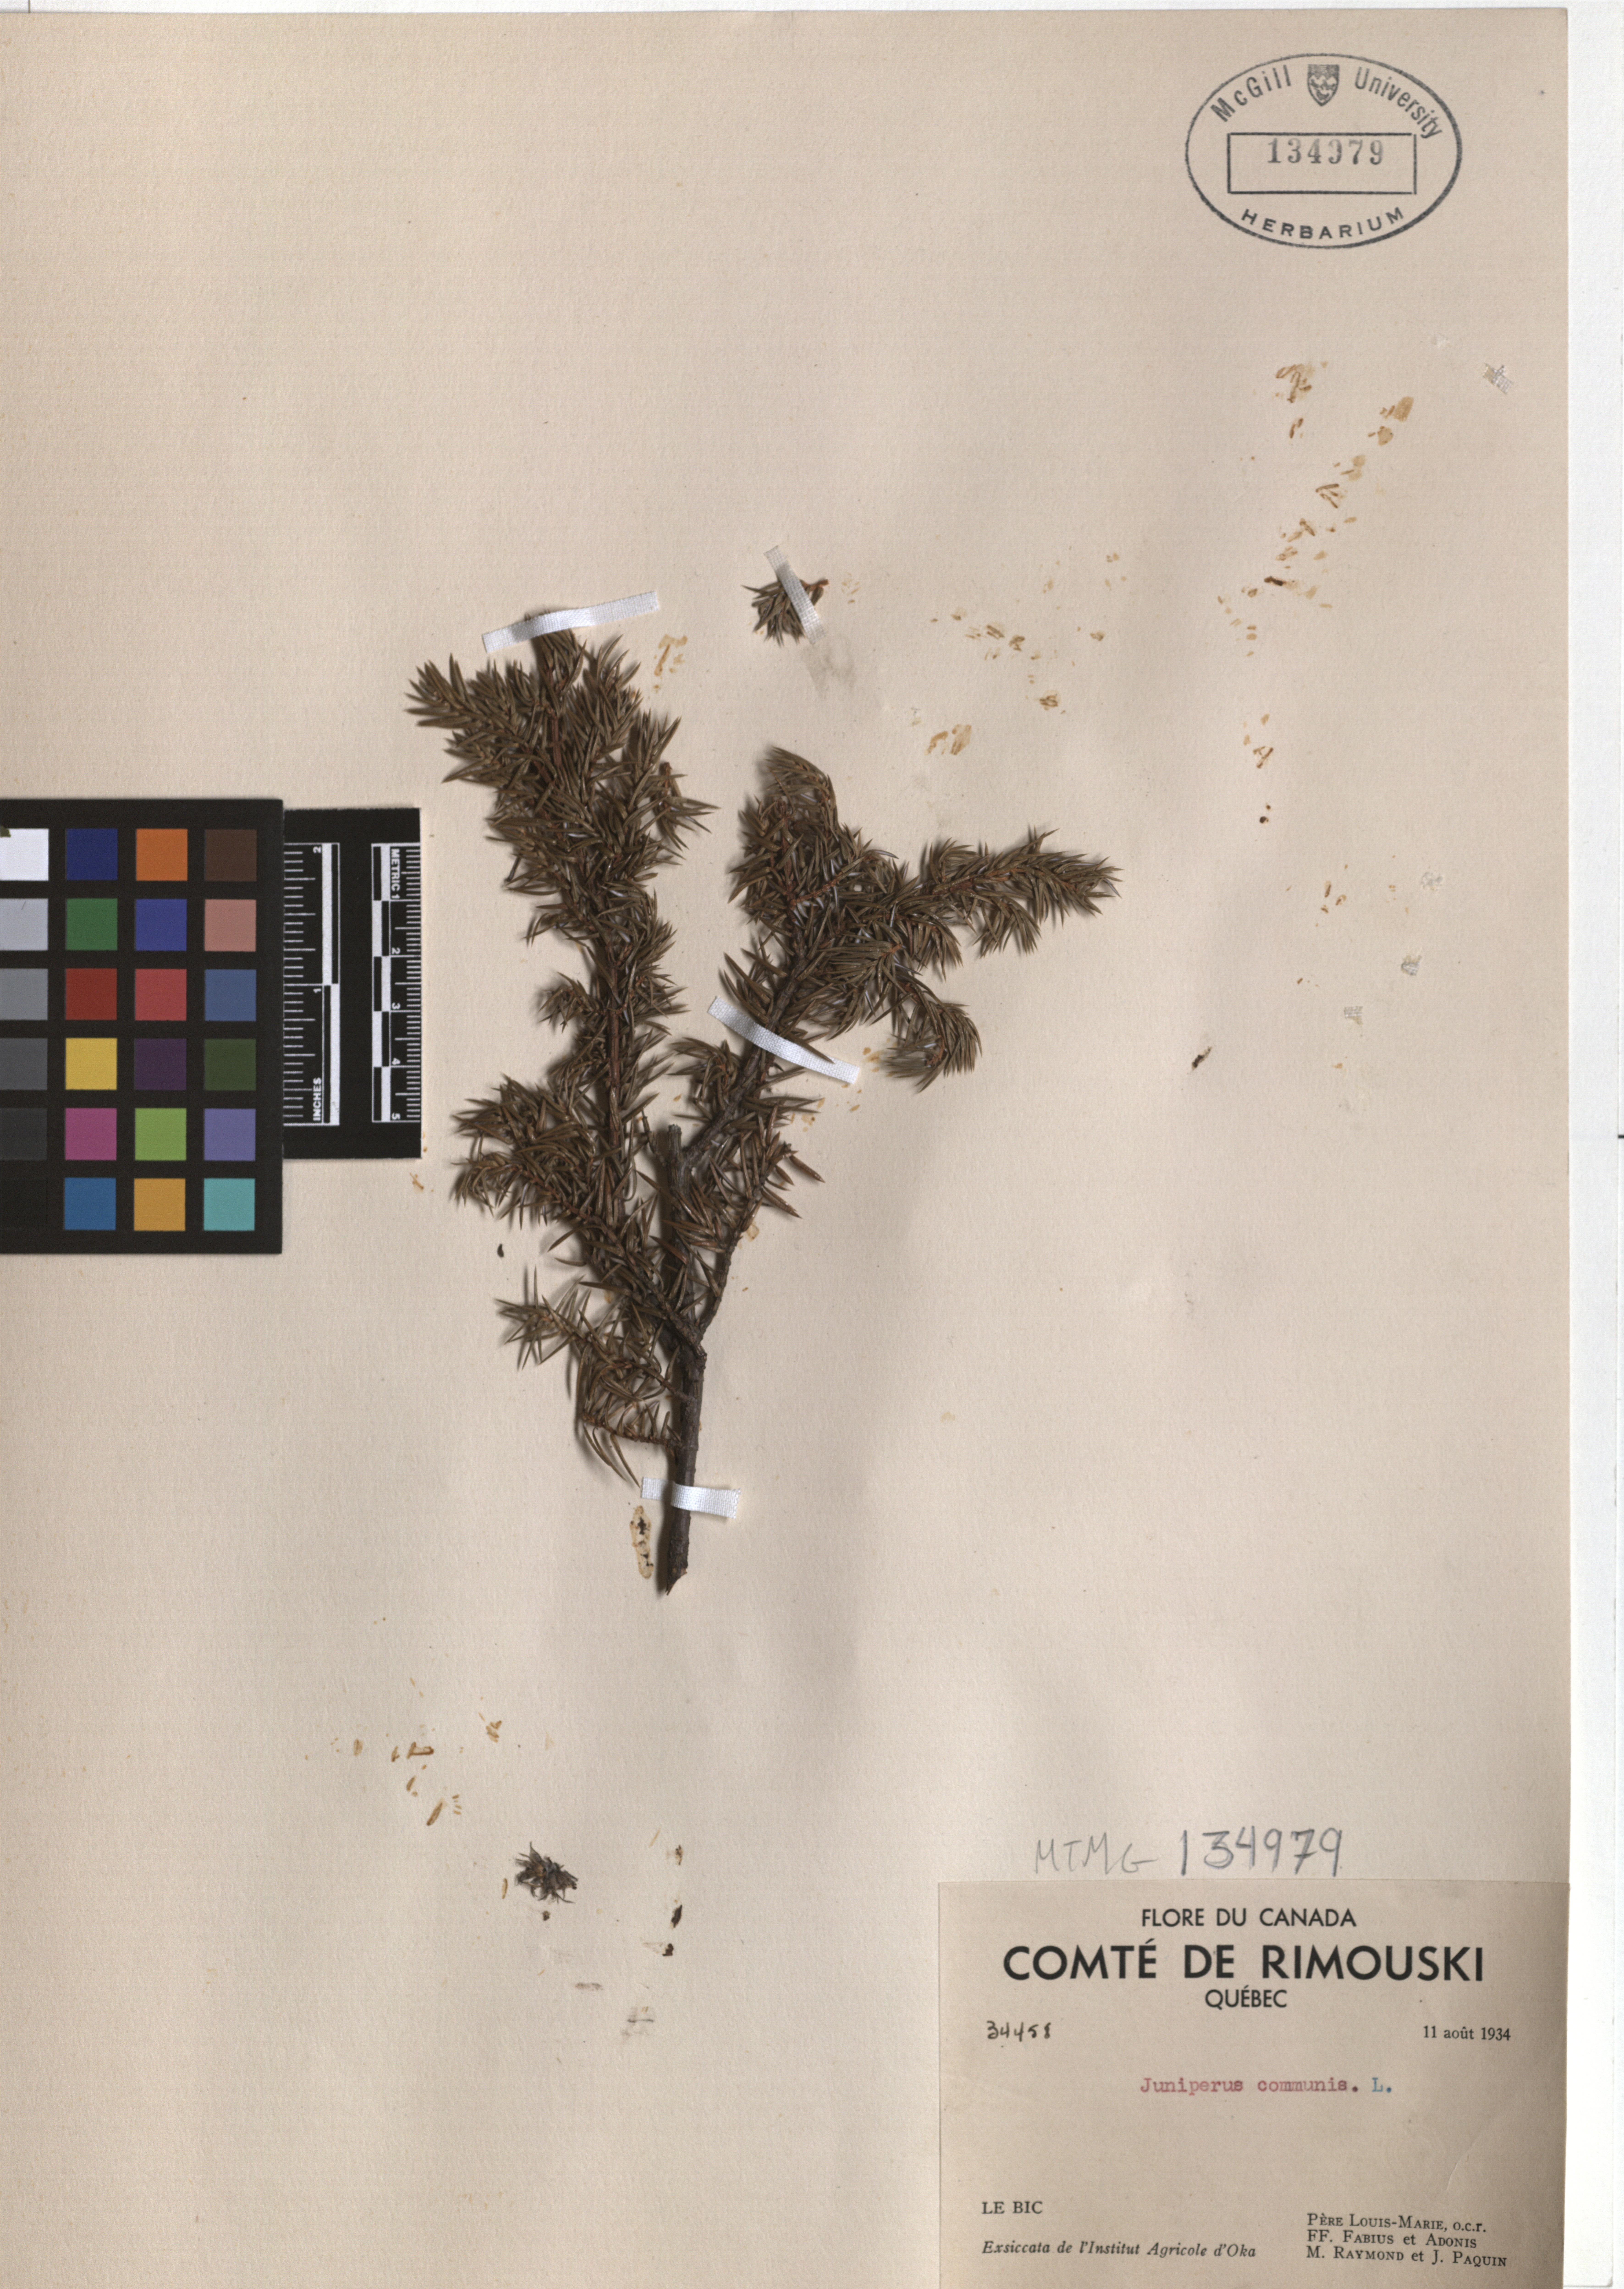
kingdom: Plantae
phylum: Tracheophyta
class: Pinopsida
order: Pinales
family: Cupressaceae
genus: Juniperus
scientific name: Juniperus communis
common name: Common juniper
